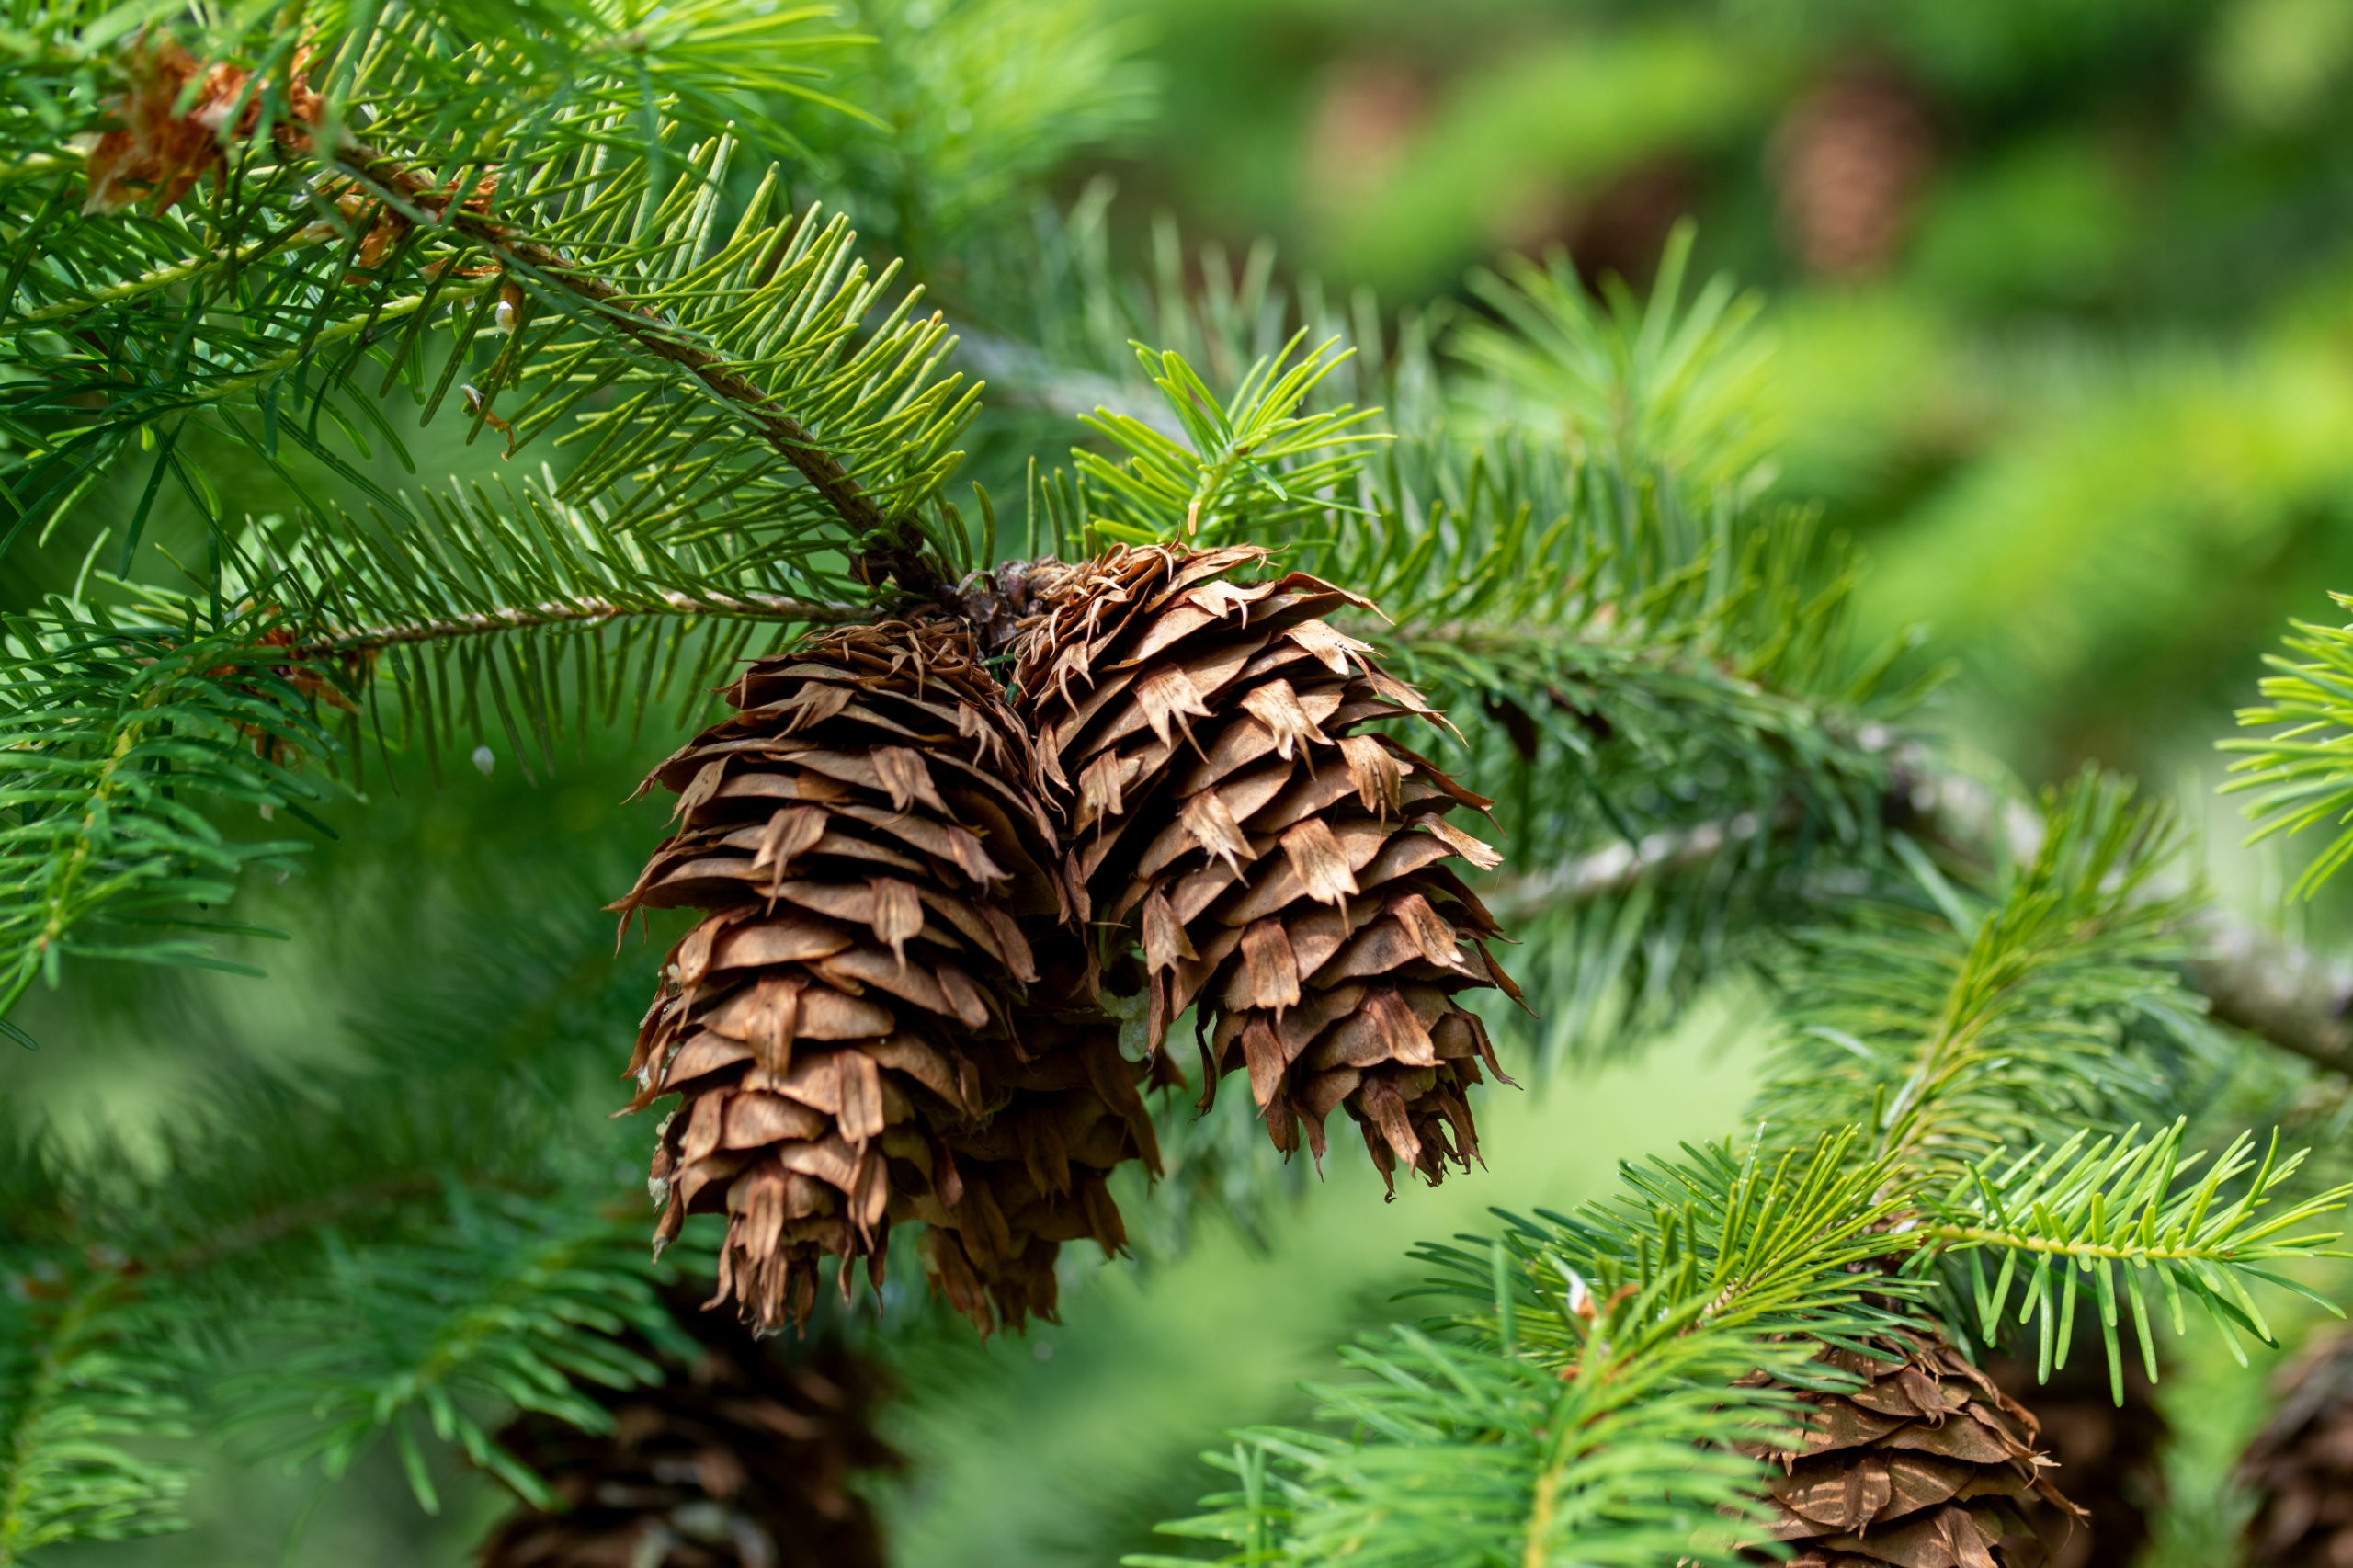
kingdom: Plantae
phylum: Tracheophyta
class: Pinopsida
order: Pinales
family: Pinaceae
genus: Pseudotsuga
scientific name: Pseudotsuga menziesii
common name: Douglasgran
